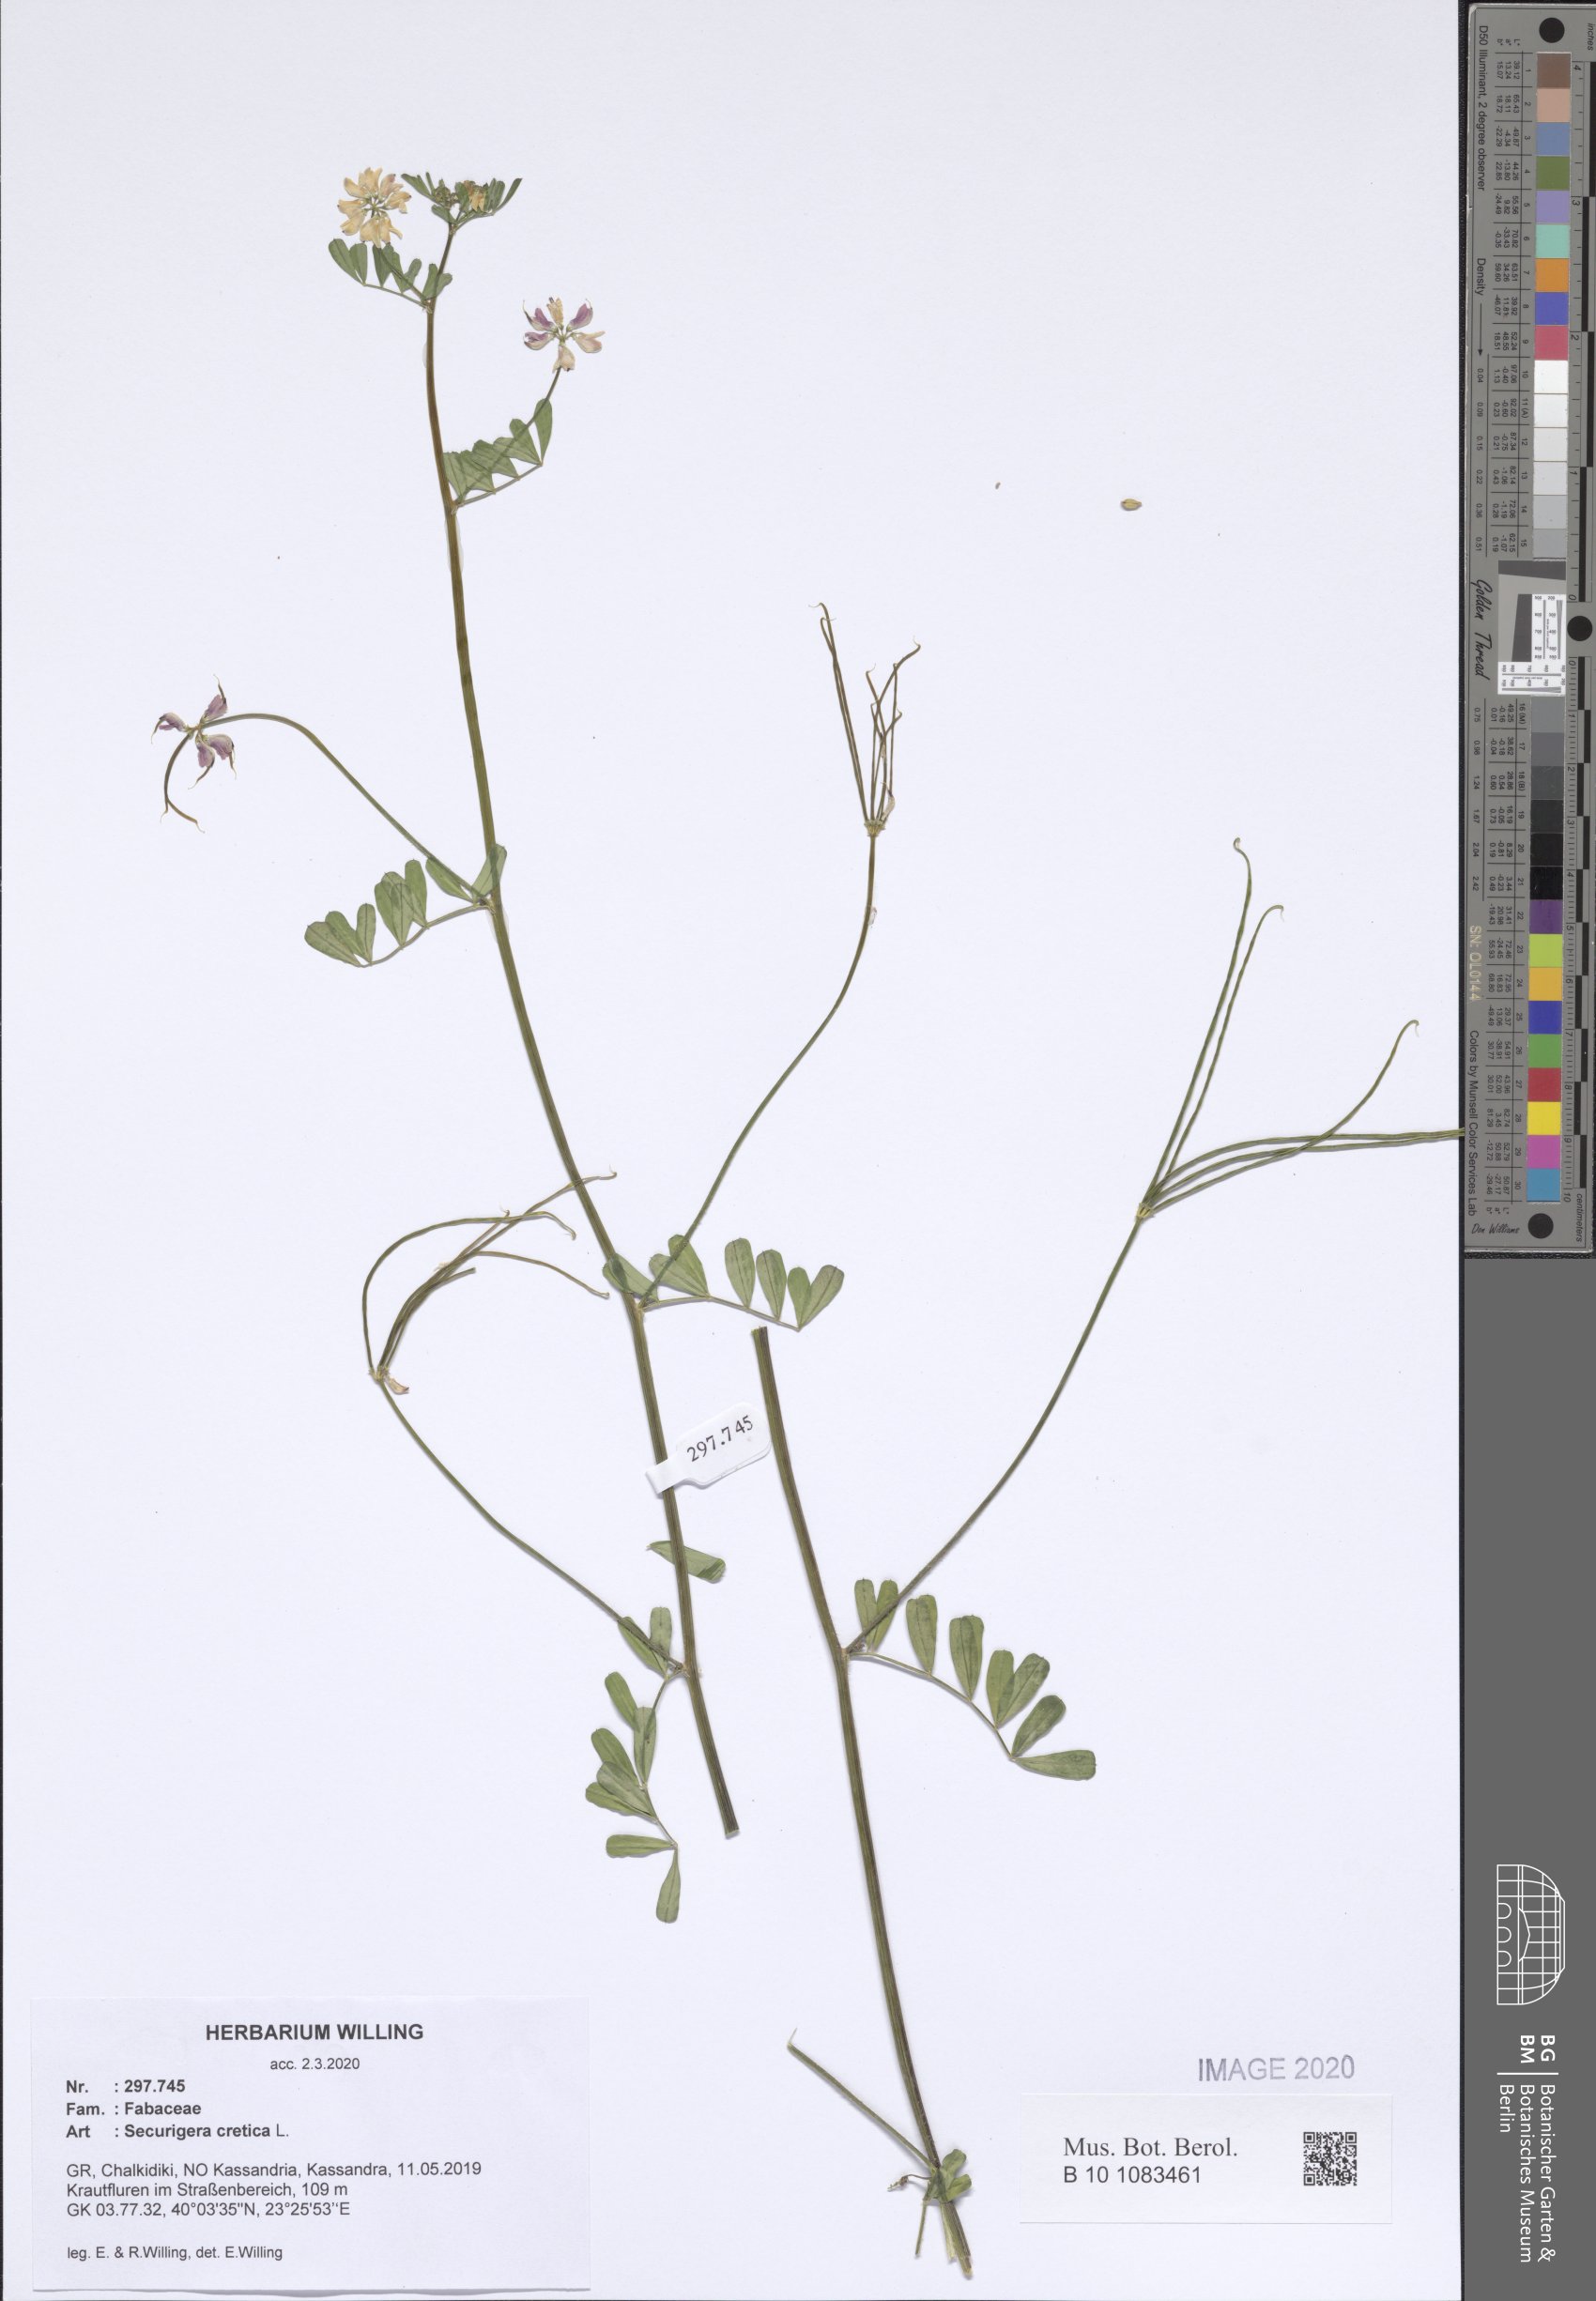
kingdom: Plantae
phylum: Tracheophyta
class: Magnoliopsida
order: Fabales
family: Fabaceae
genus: Coronilla
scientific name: Coronilla cretica
